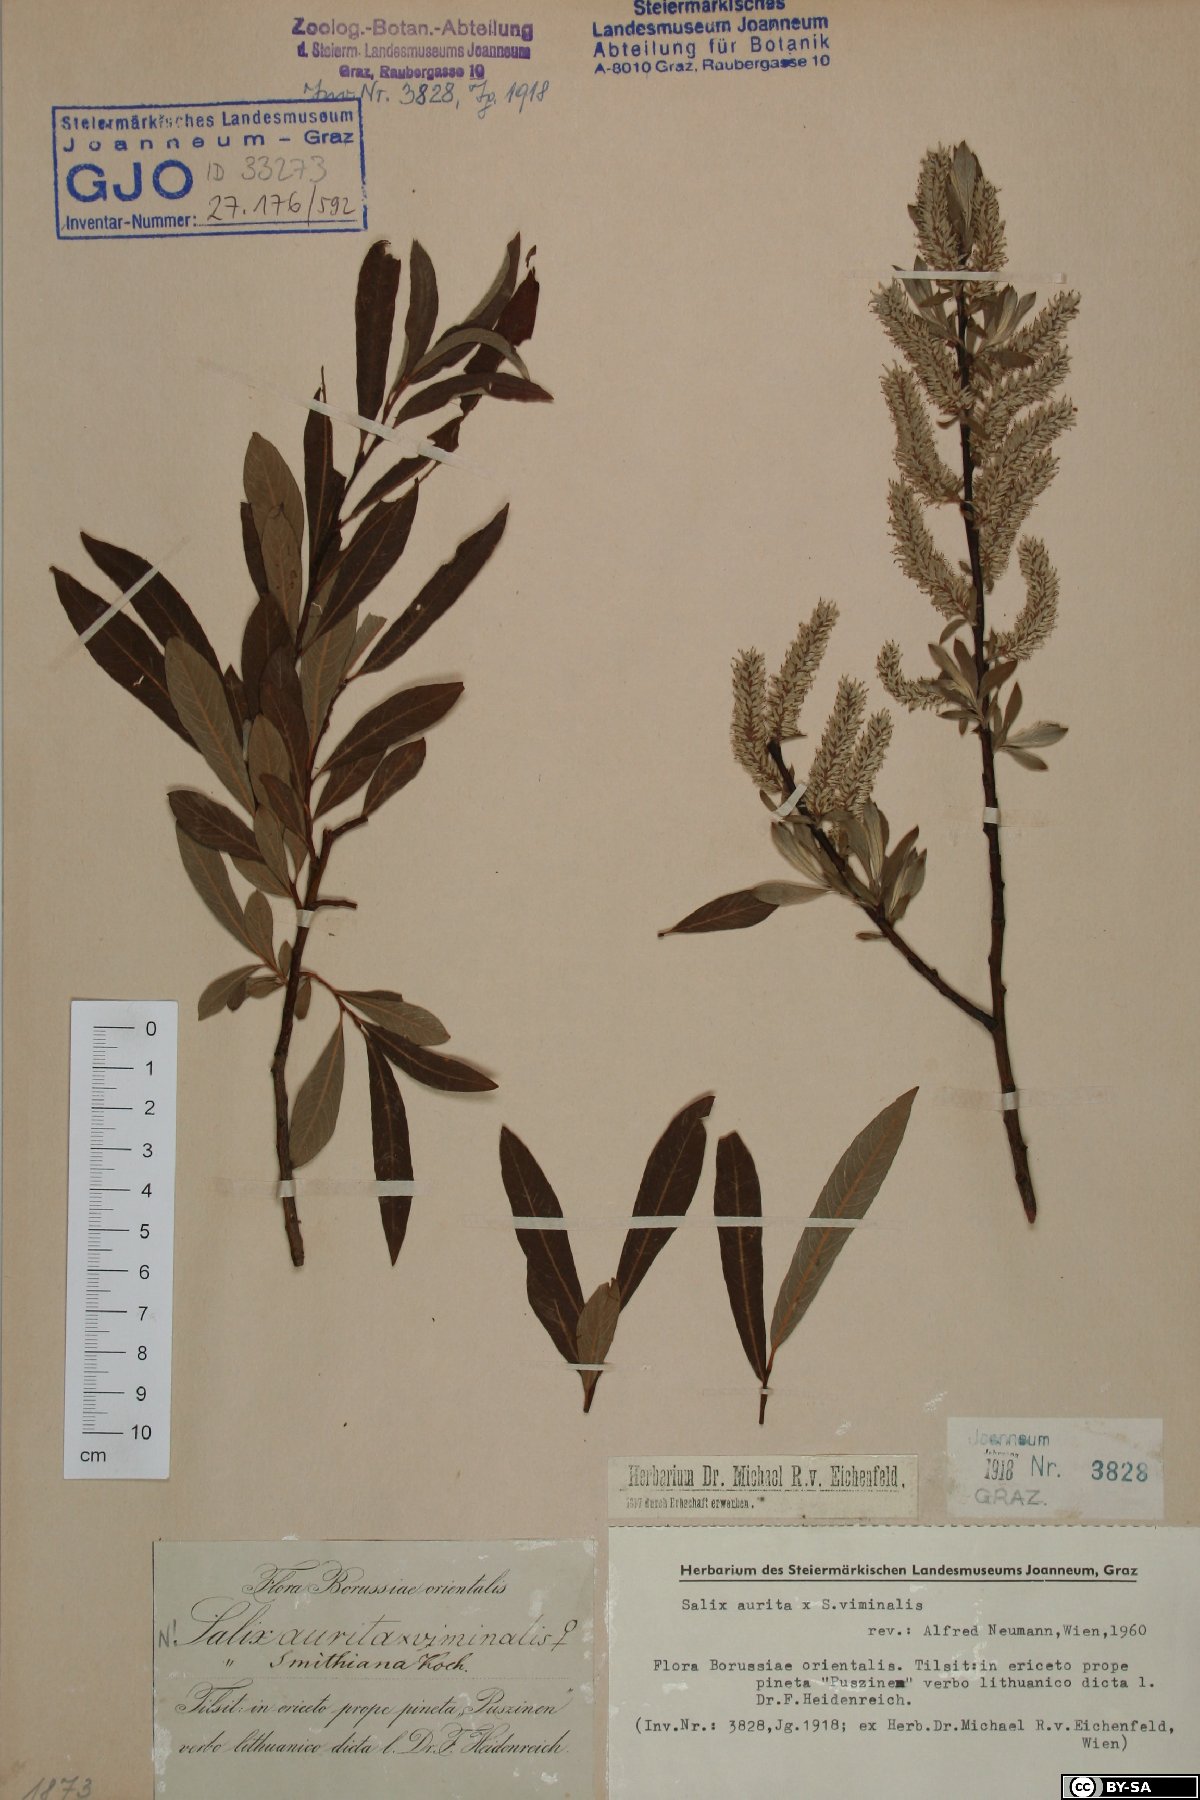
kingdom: Plantae
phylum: Tracheophyta
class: Magnoliopsida
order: Malpighiales
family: Salicaceae
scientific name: Salicaceae
